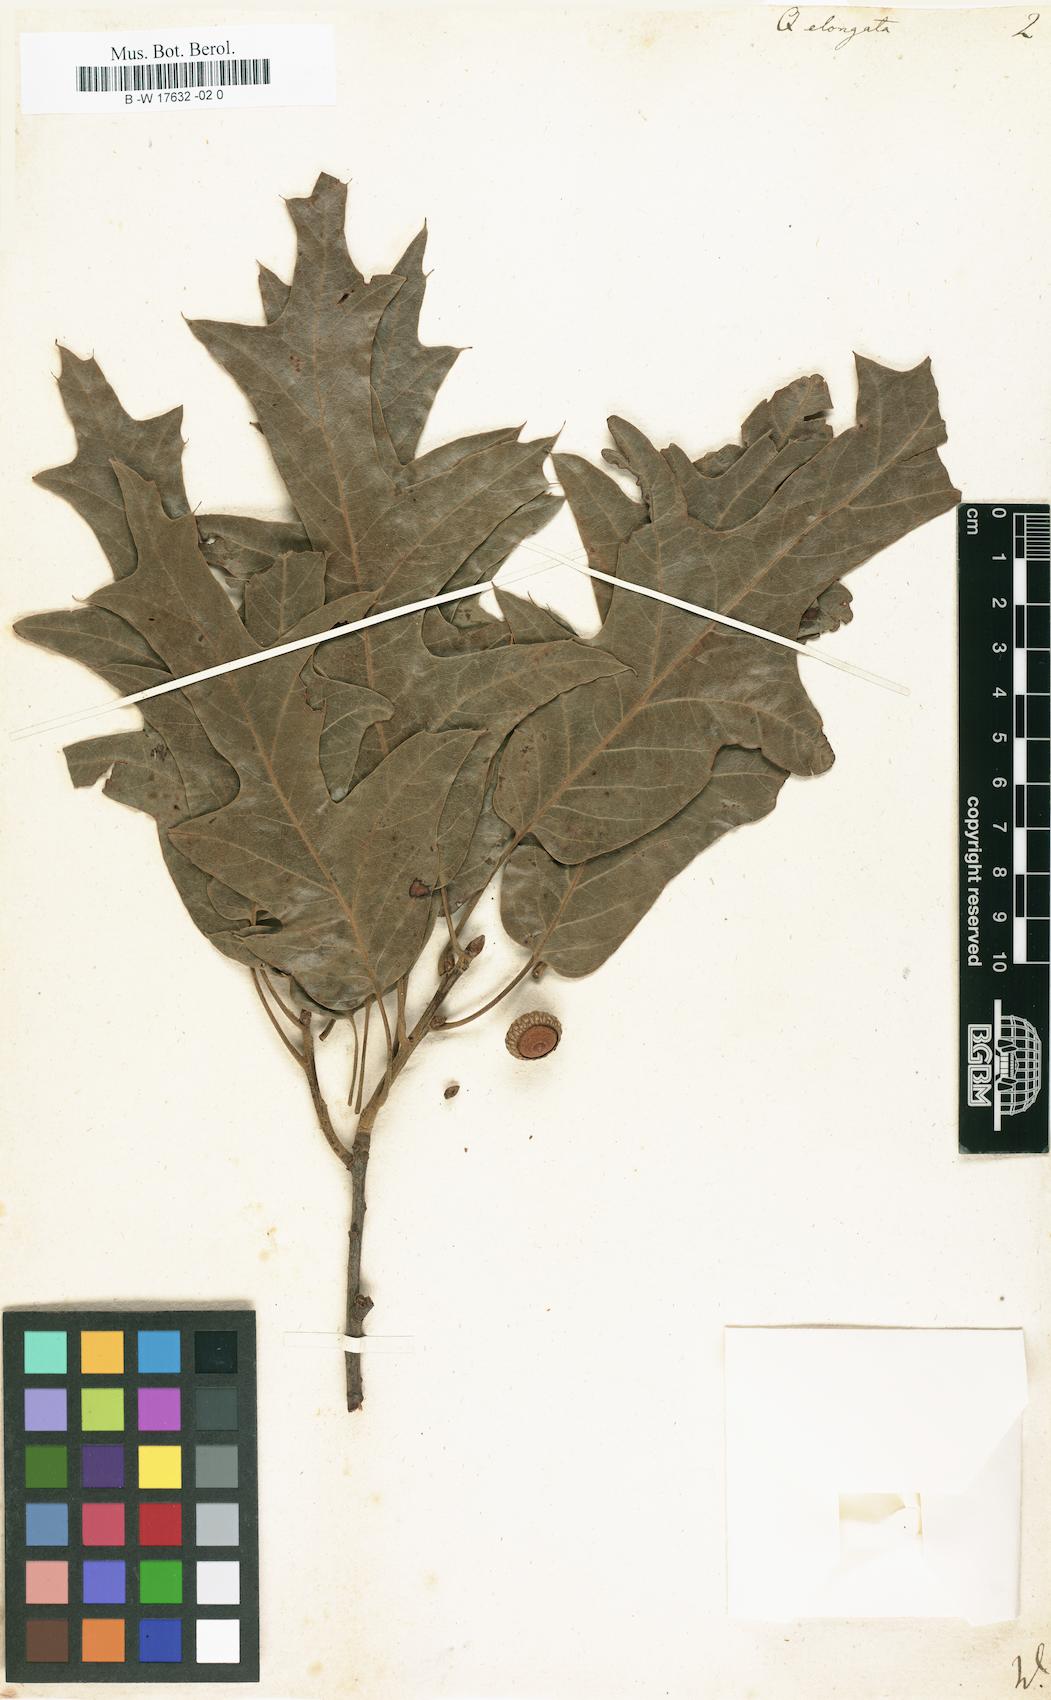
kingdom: Plantae
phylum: Tracheophyta
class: Magnoliopsida
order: Fagales
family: Fagaceae
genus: Quercus
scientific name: Quercus elongata
